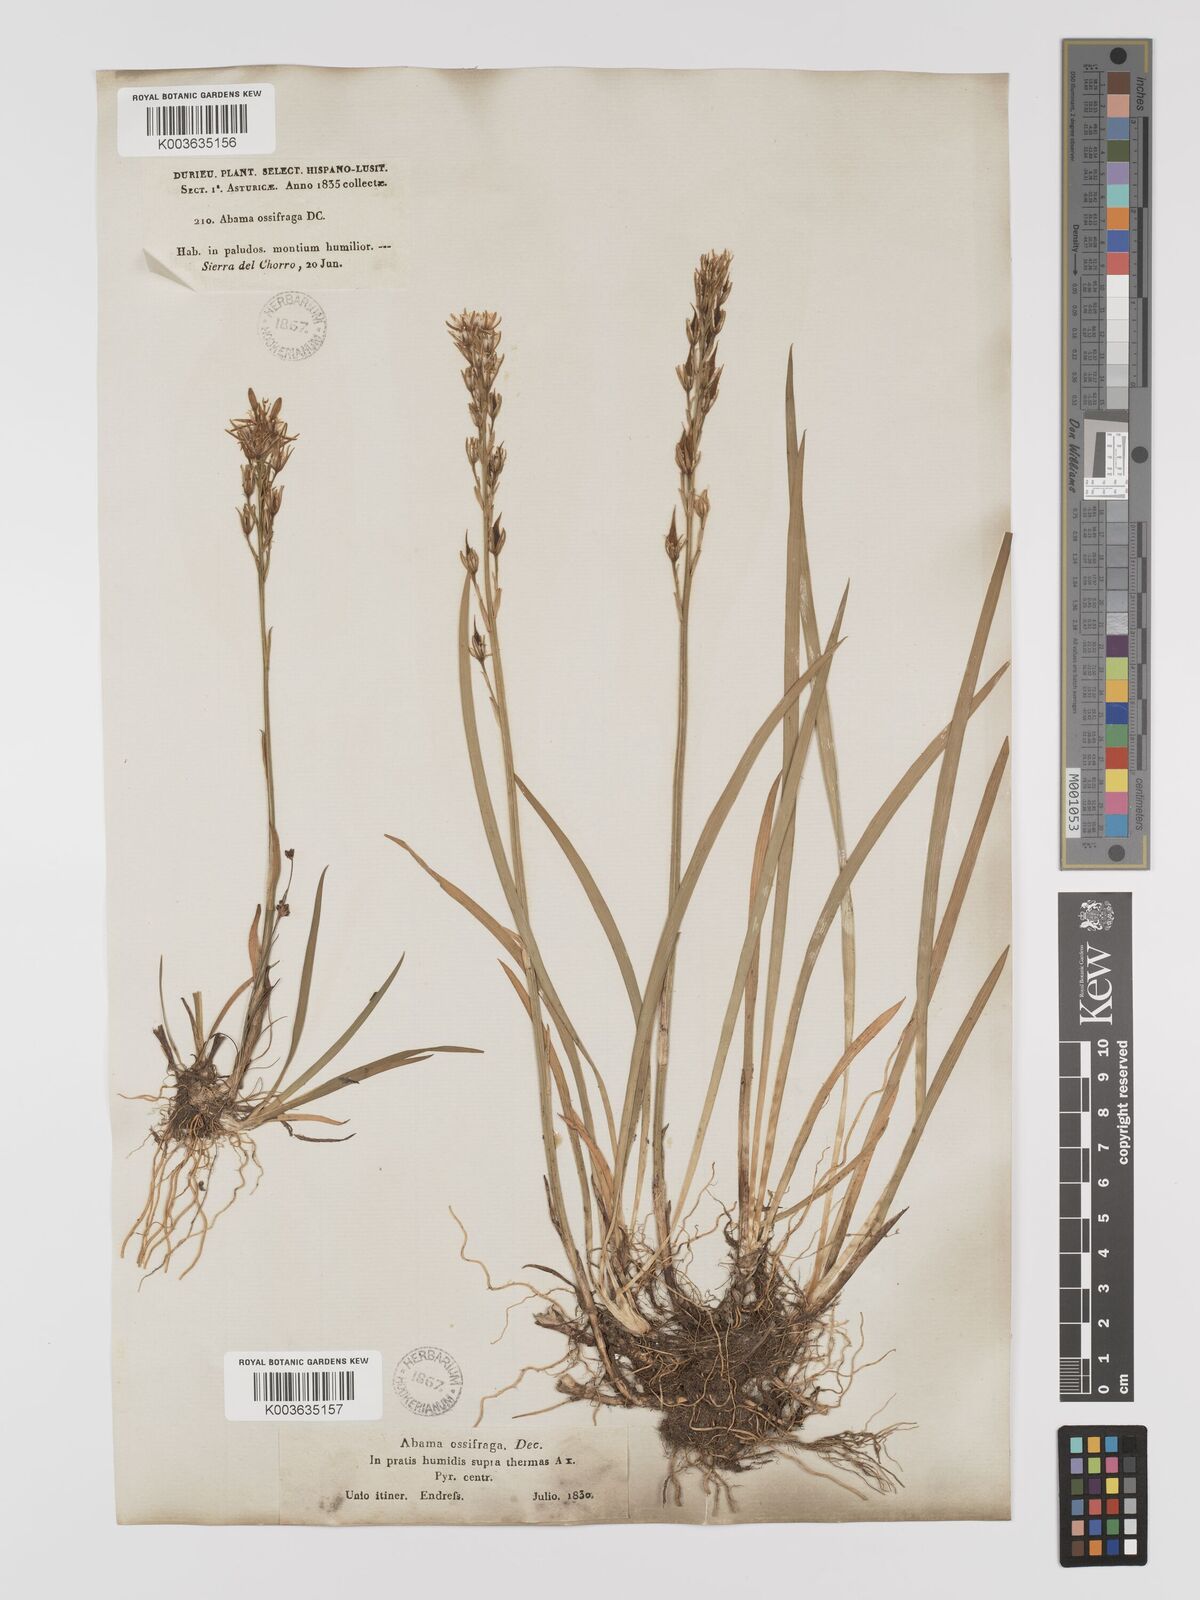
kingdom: Plantae
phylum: Tracheophyta
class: Liliopsida
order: Dioscoreales
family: Nartheciaceae
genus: Narthecium
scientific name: Narthecium ossifragum
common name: Bog asphodel
